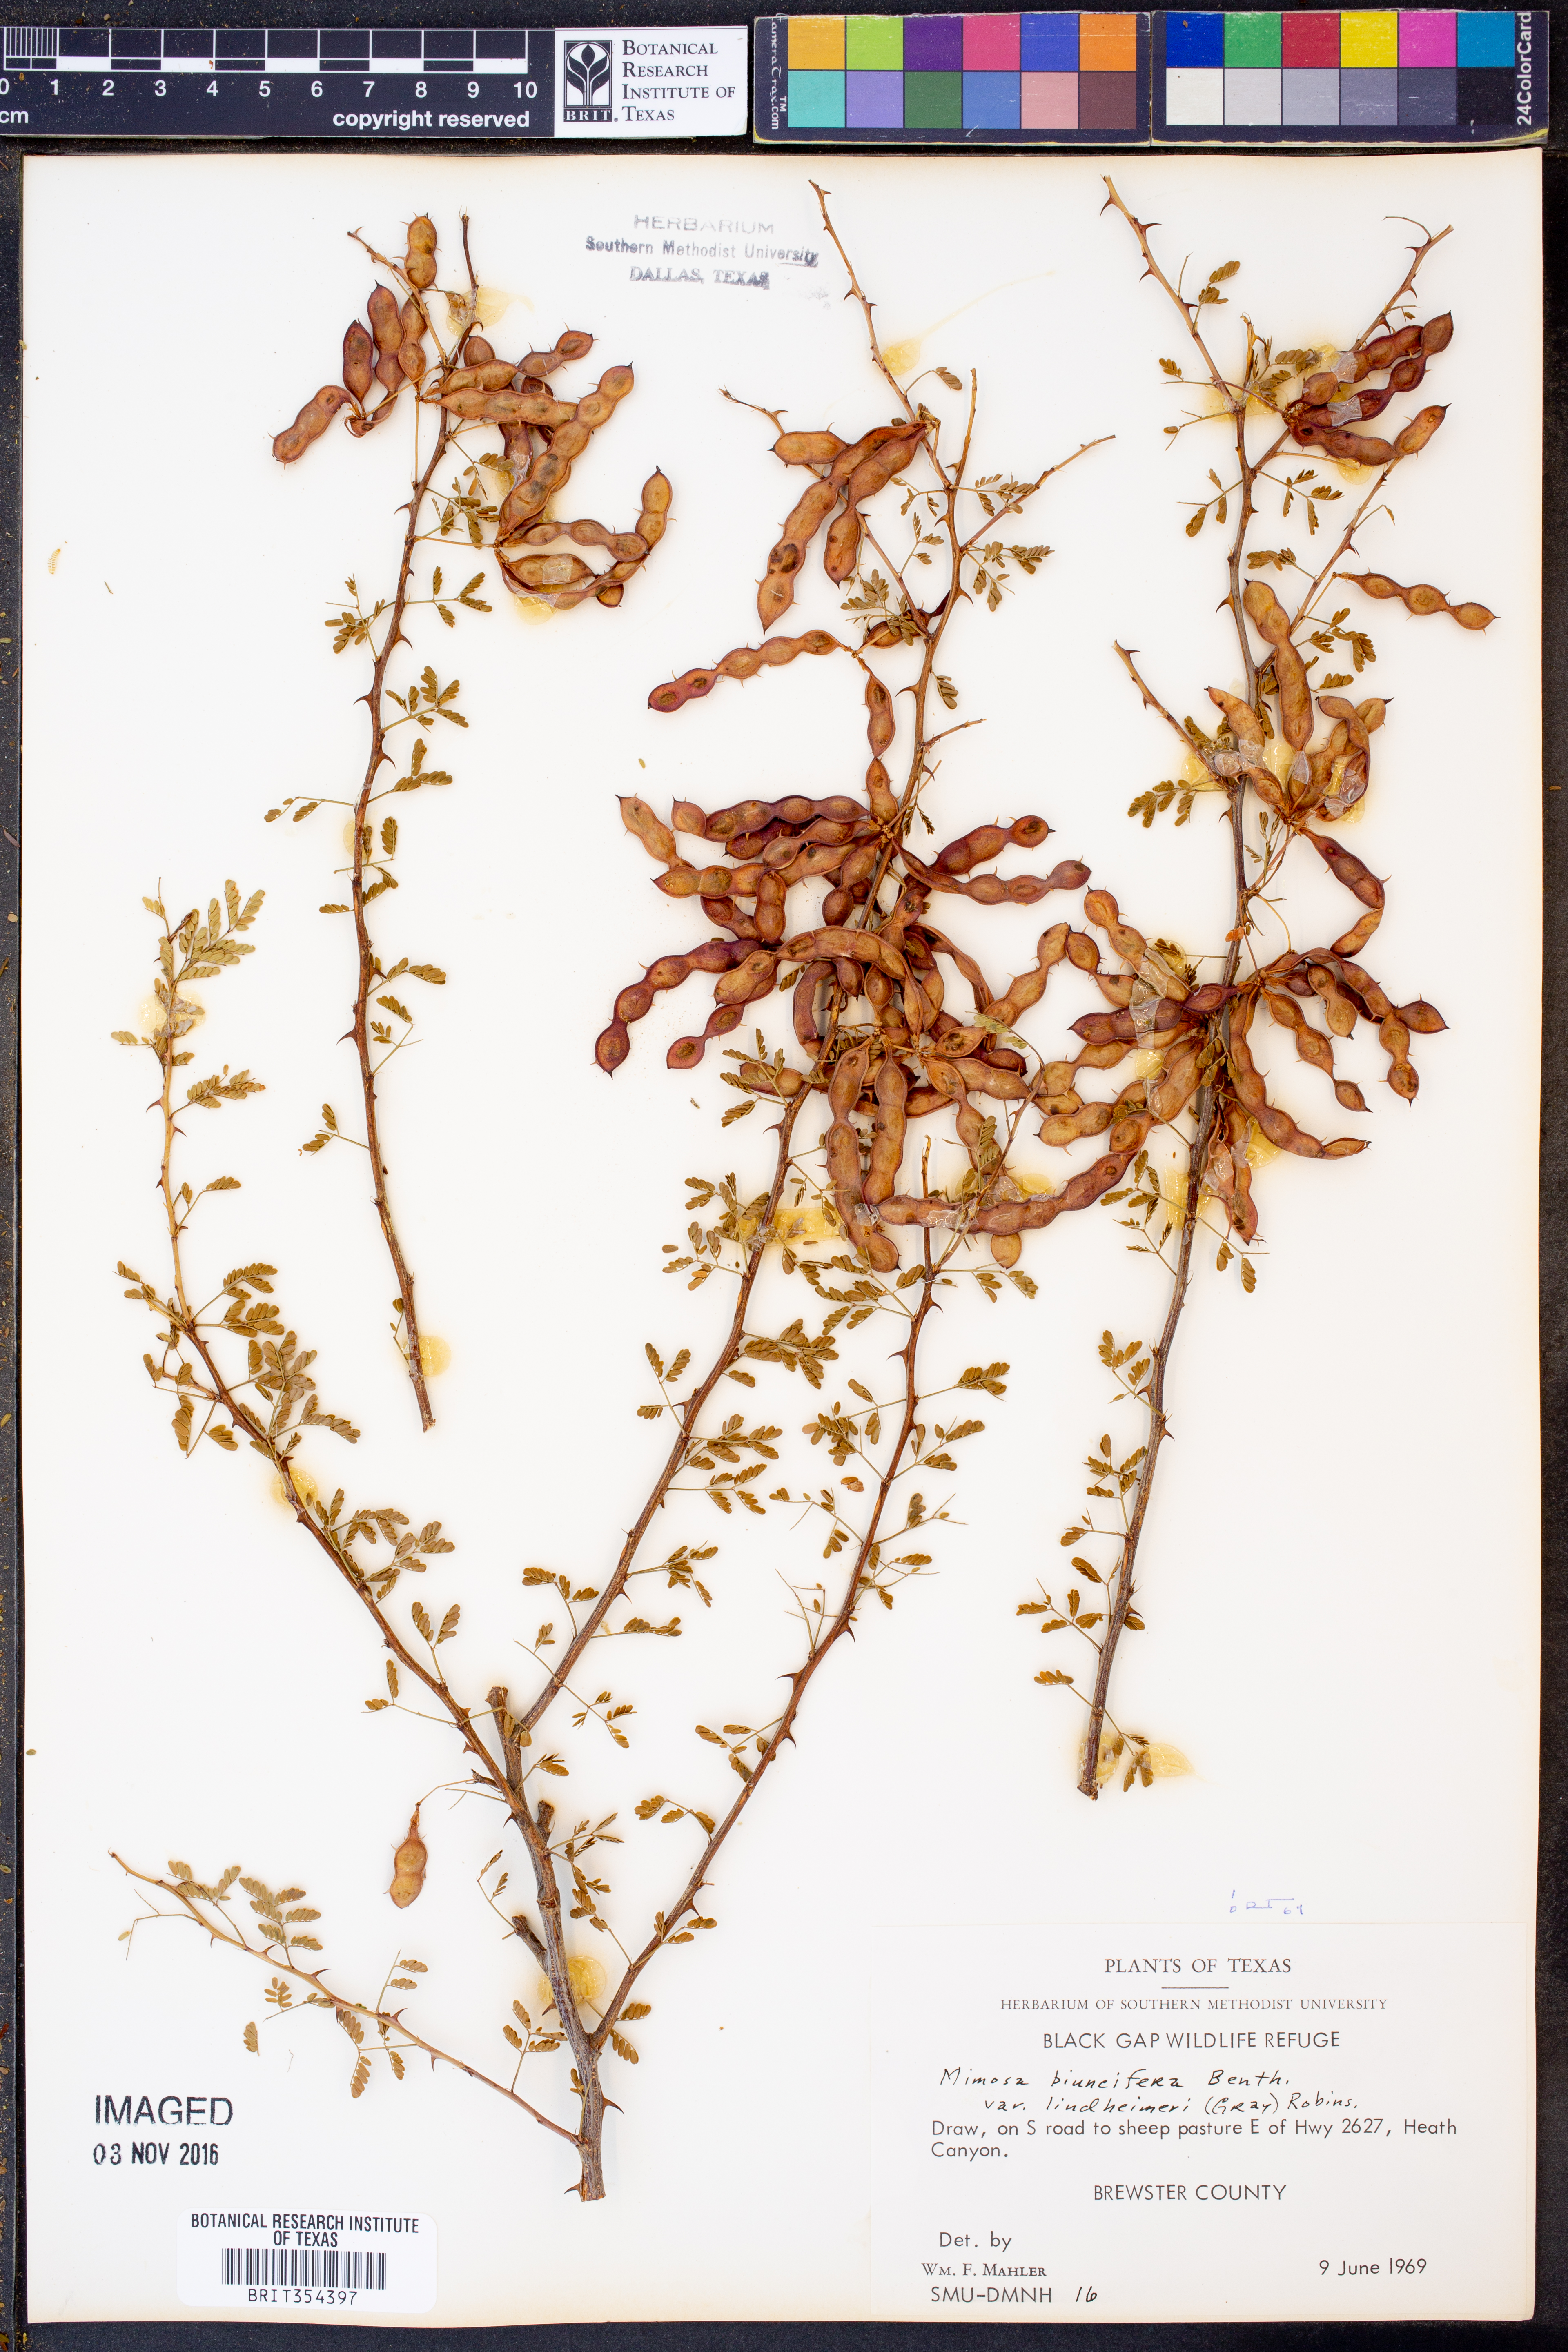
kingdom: Plantae
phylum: Tracheophyta
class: Magnoliopsida
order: Fabales
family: Fabaceae
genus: Mimosa
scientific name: Mimosa biuncifera
